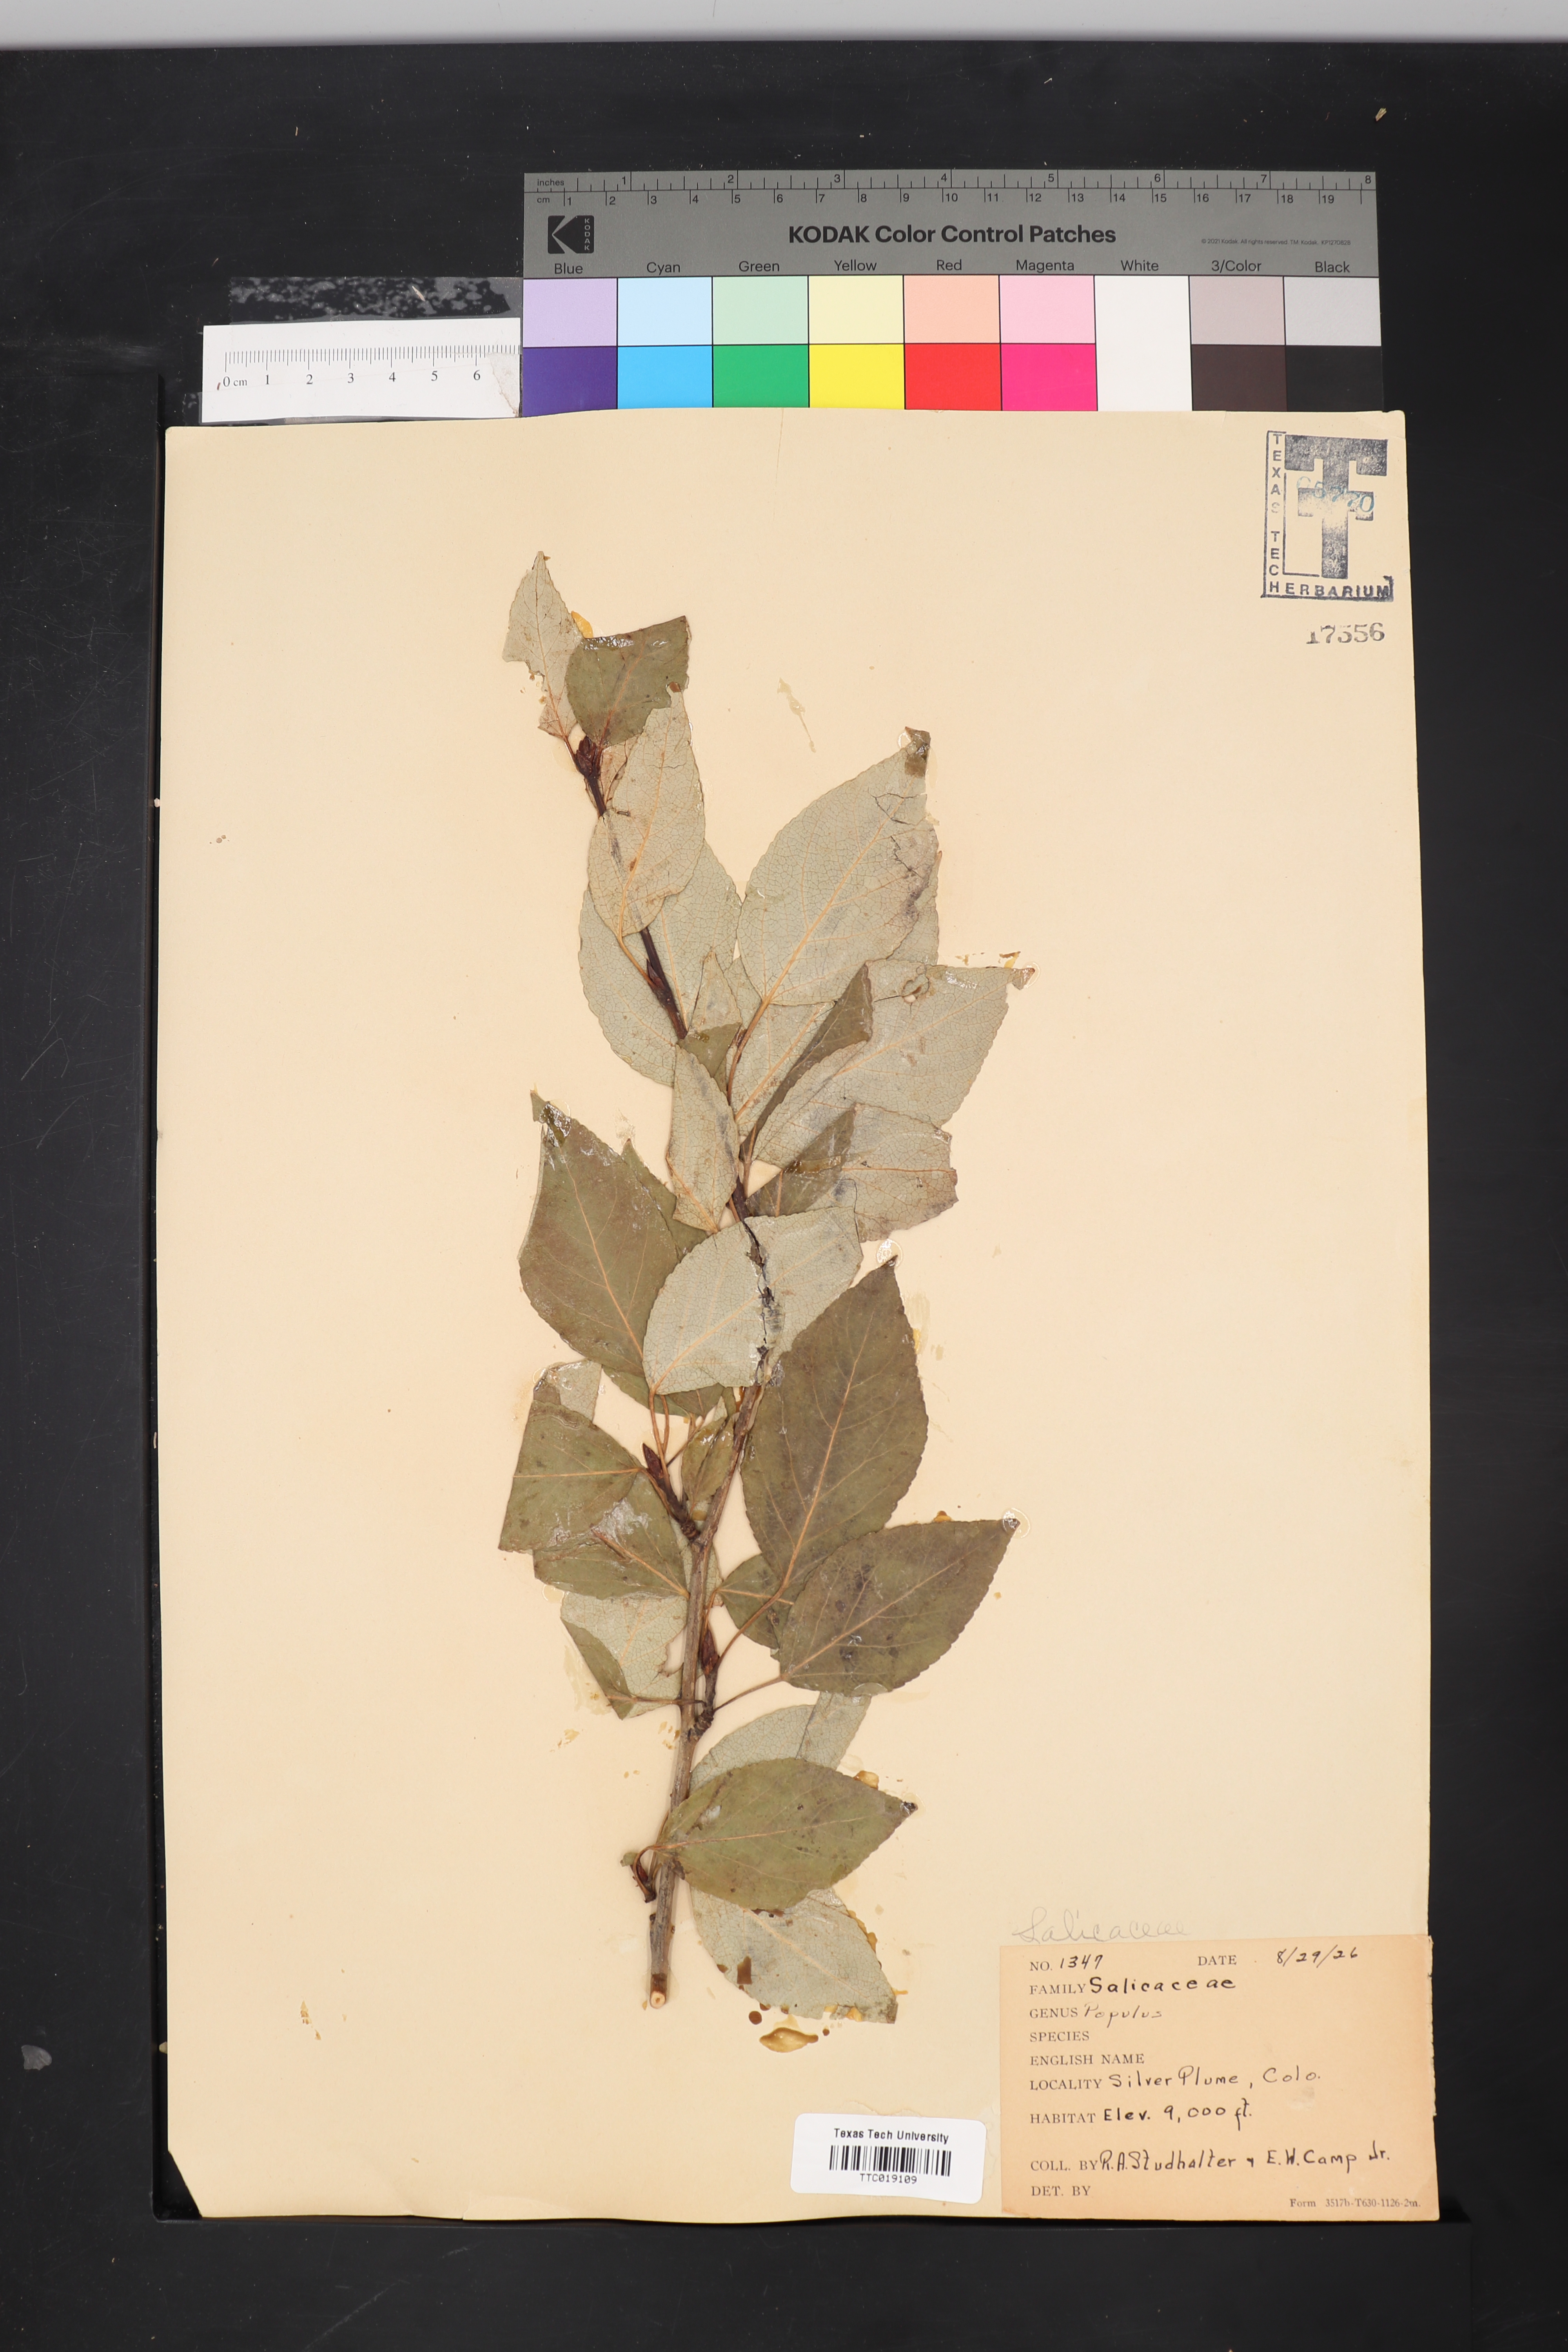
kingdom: Plantae
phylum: Tracheophyta
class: Magnoliopsida
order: Malpighiales
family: Salicaceae
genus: Populus
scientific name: Populus
